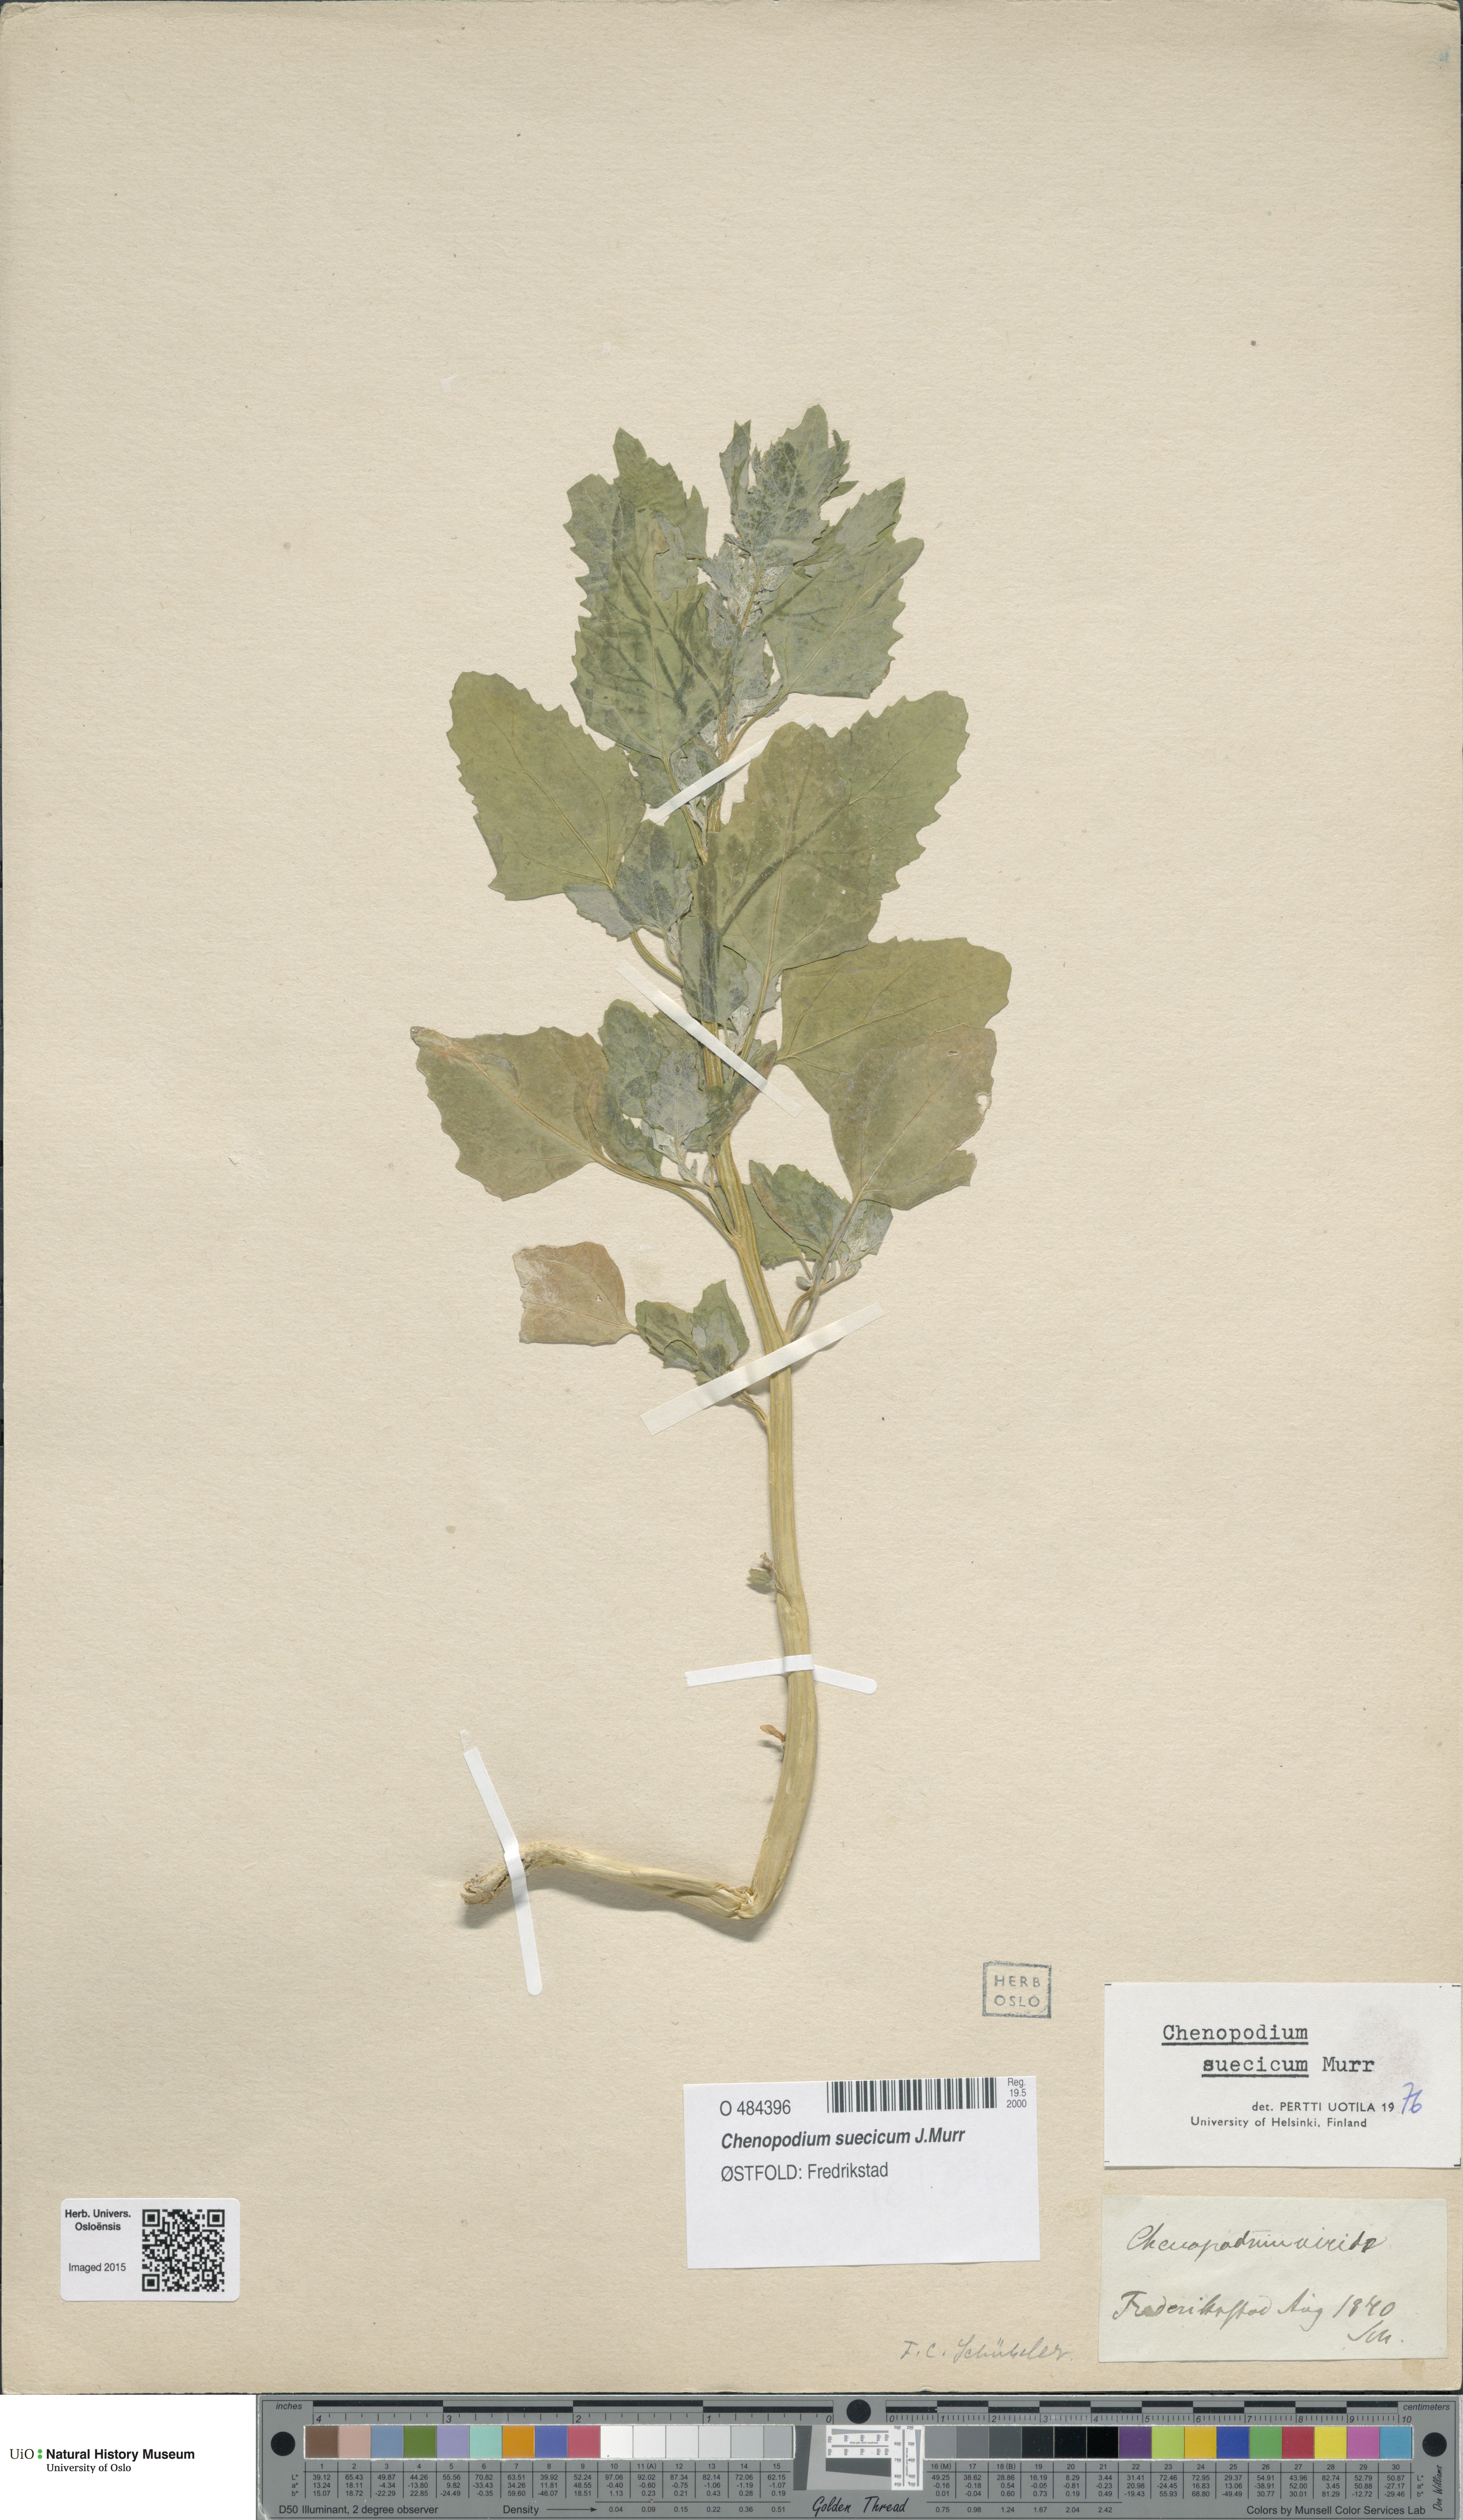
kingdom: Plantae
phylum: Tracheophyta
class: Magnoliopsida
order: Caryophyllales
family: Amaranthaceae
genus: Chenopodium
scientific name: Chenopodium suecicum
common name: Swedish goosefoot
